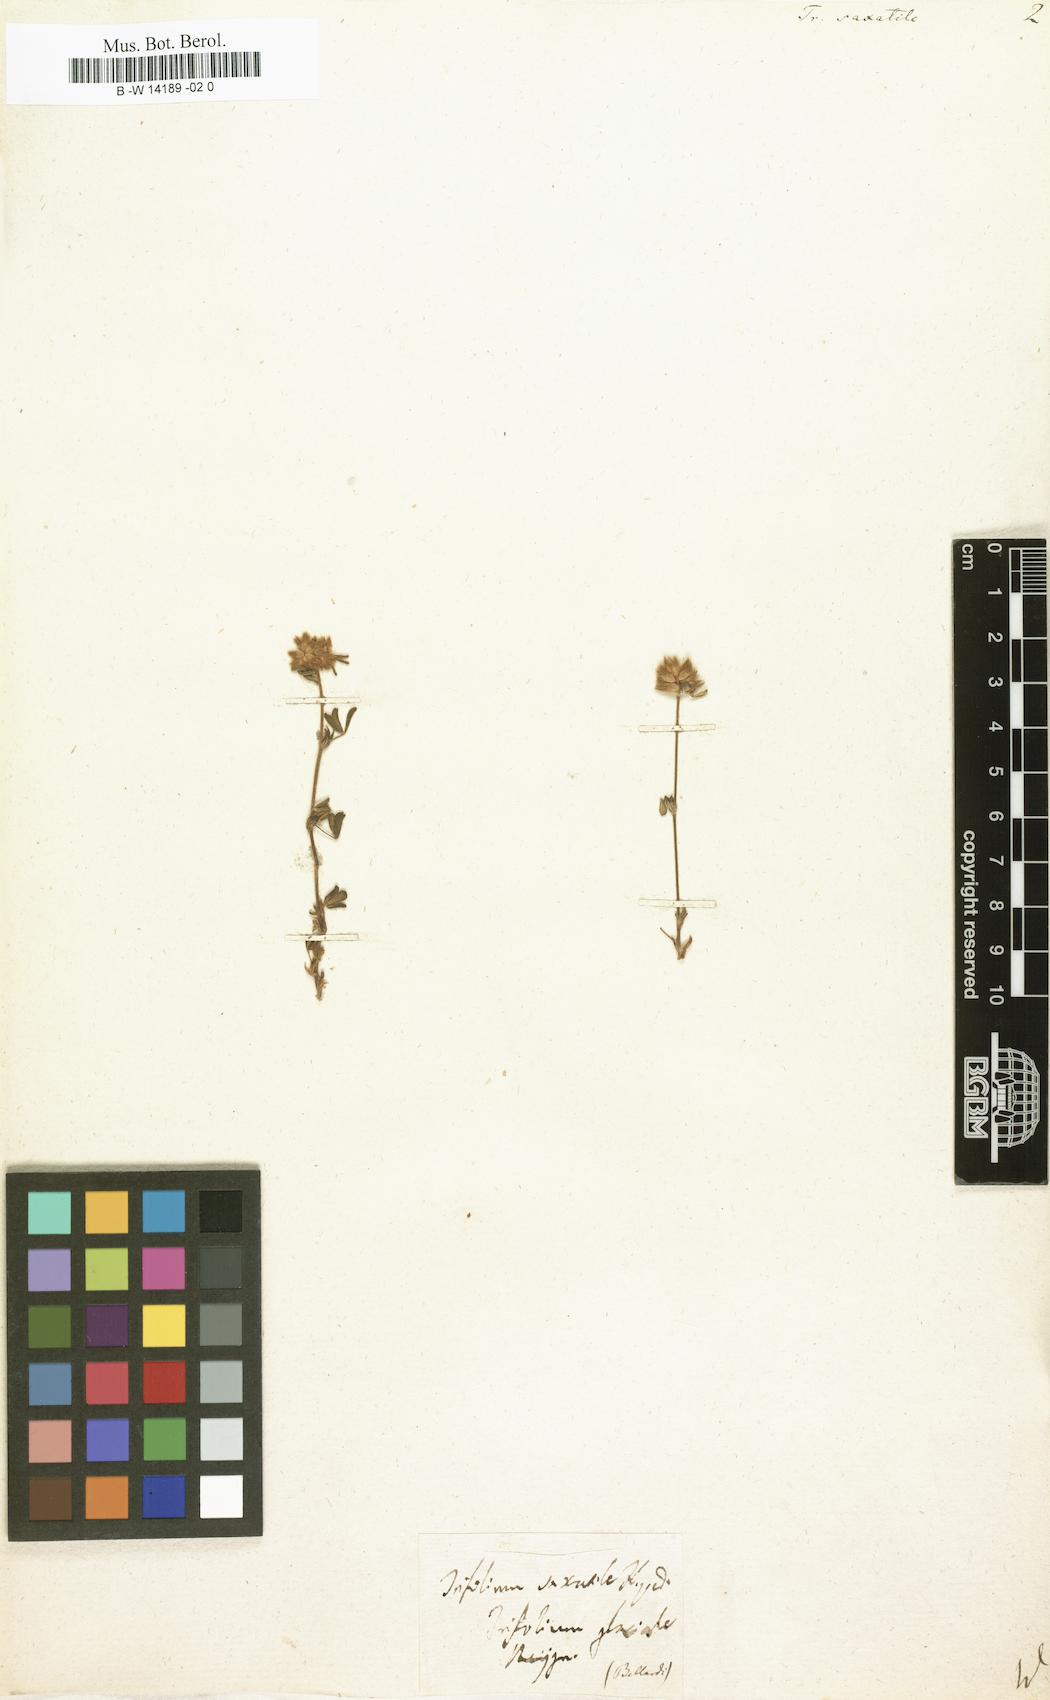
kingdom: Plantae
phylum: Tracheophyta
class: Magnoliopsida
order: Fabales
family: Fabaceae
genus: Trifolium
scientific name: Trifolium saxatile
